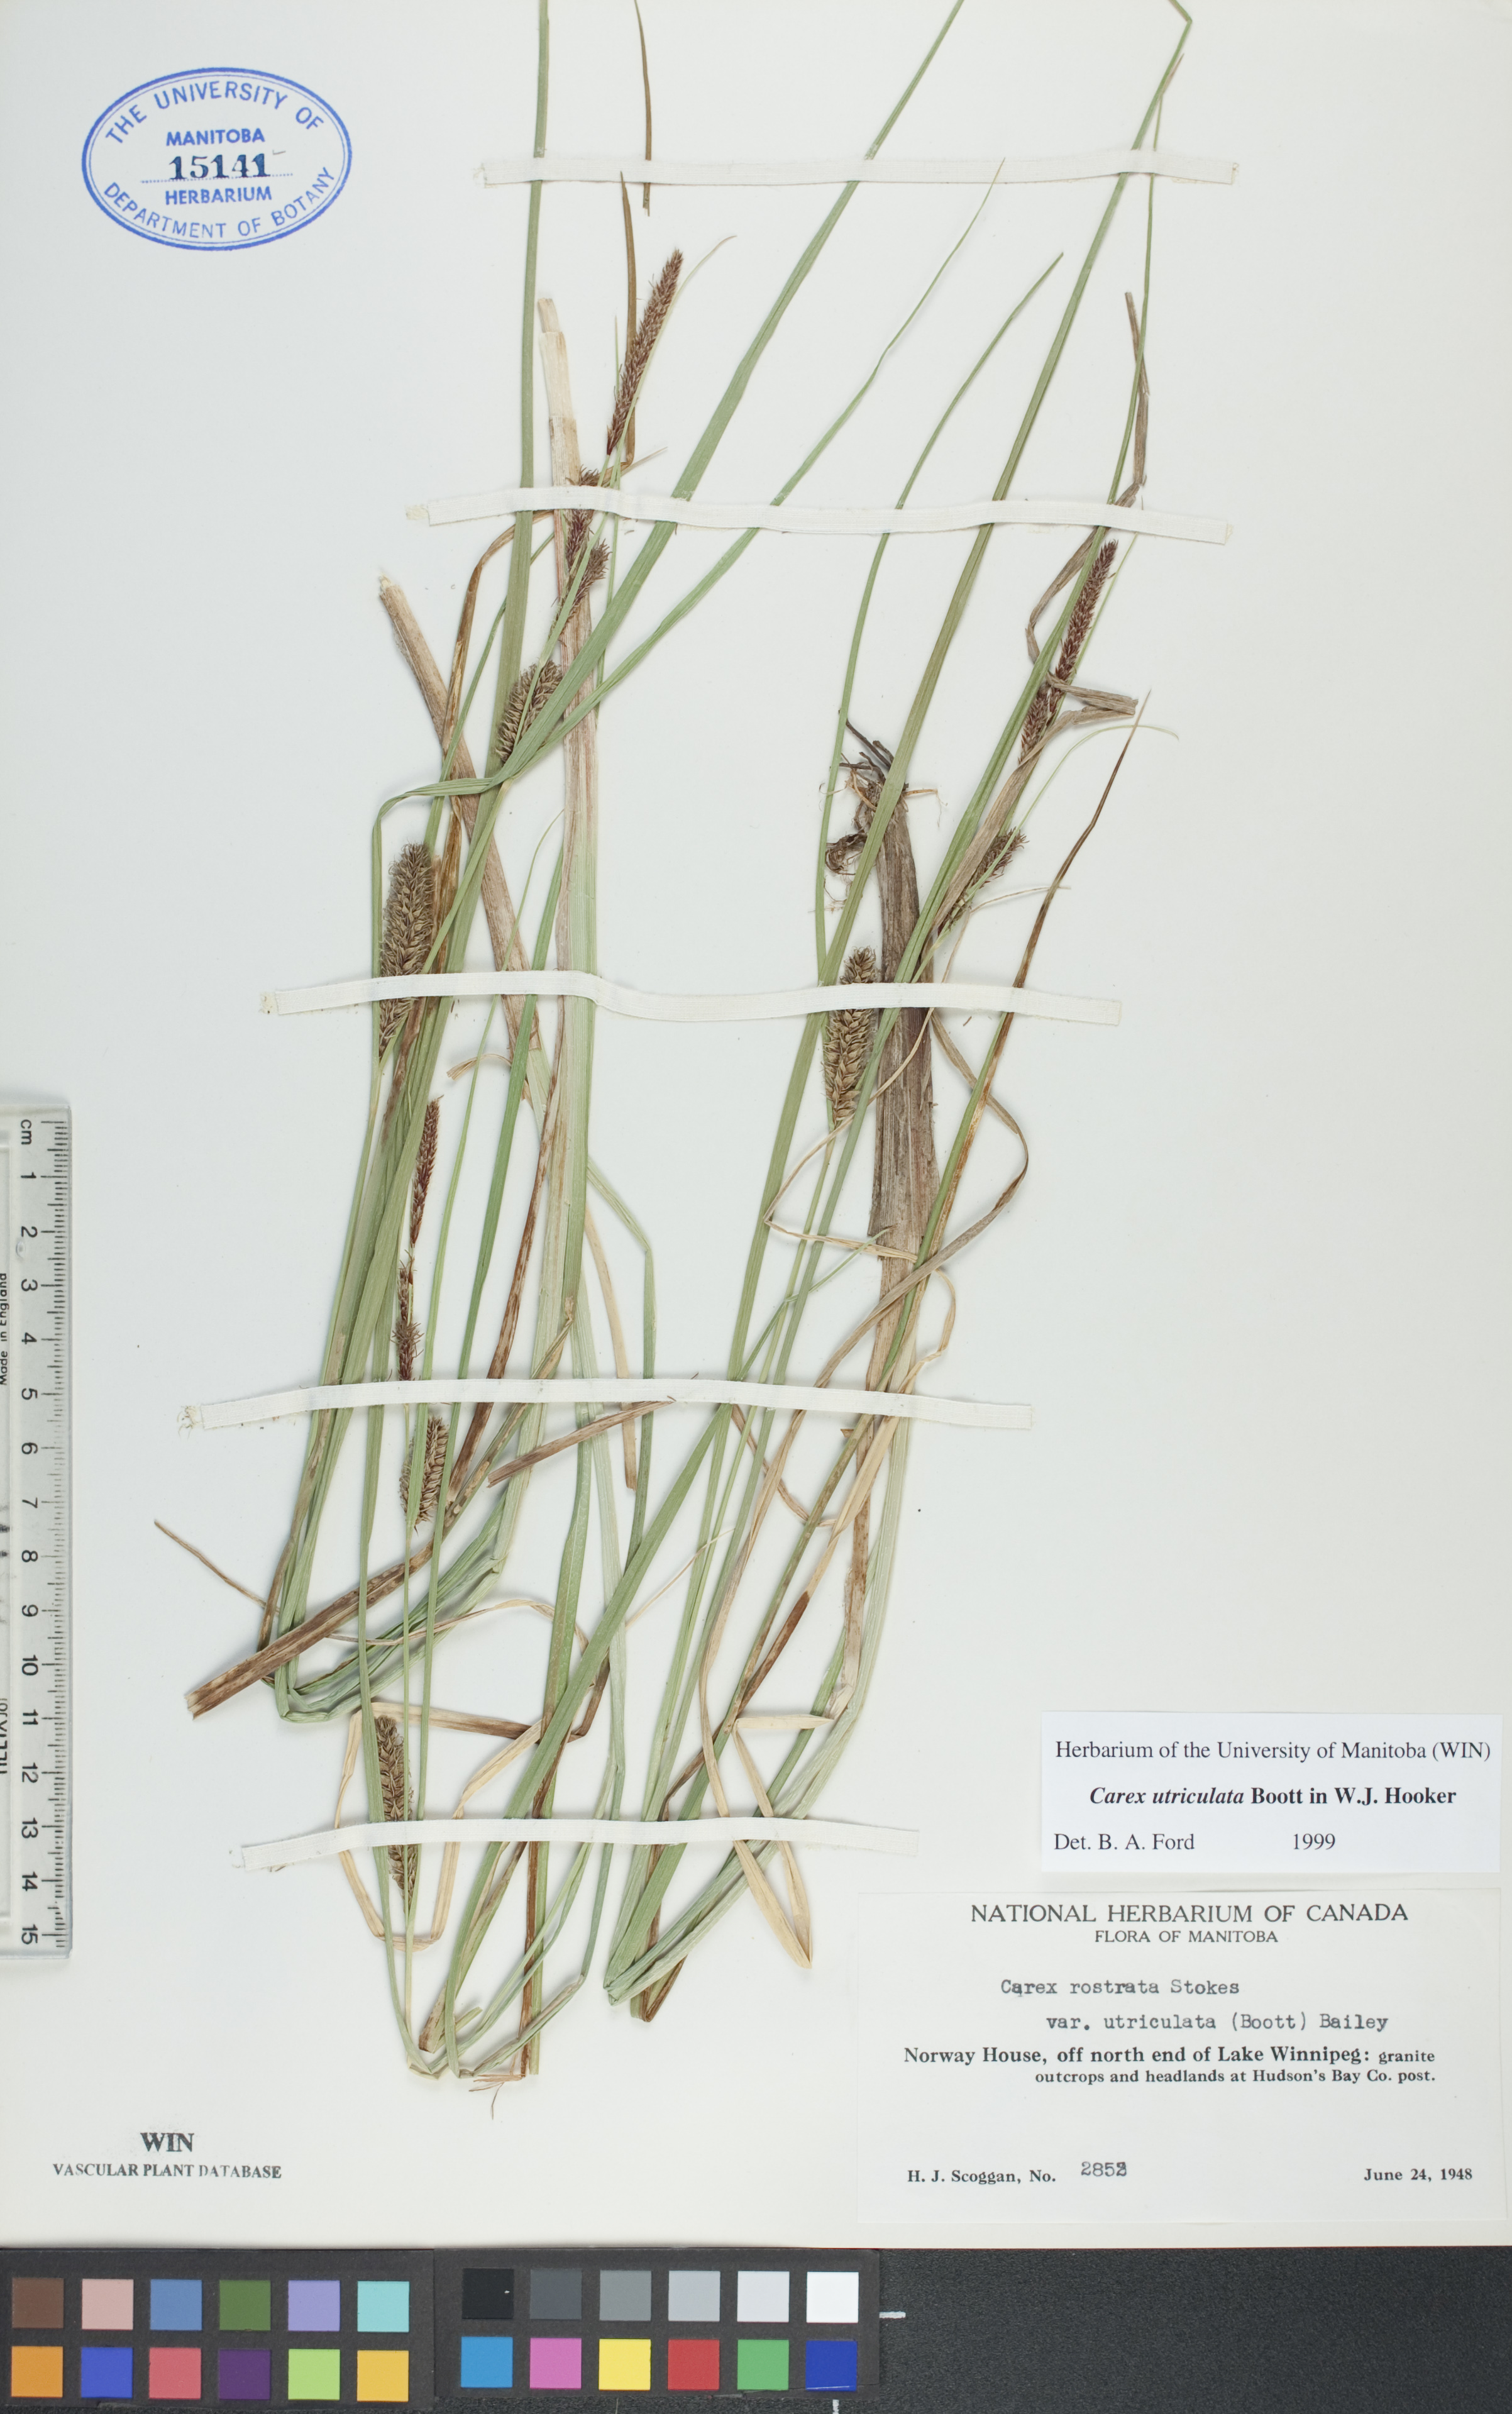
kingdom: Plantae
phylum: Tracheophyta
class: Liliopsida
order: Poales
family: Cyperaceae
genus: Carex
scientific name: Carex utriculata
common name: Beaked sedge
